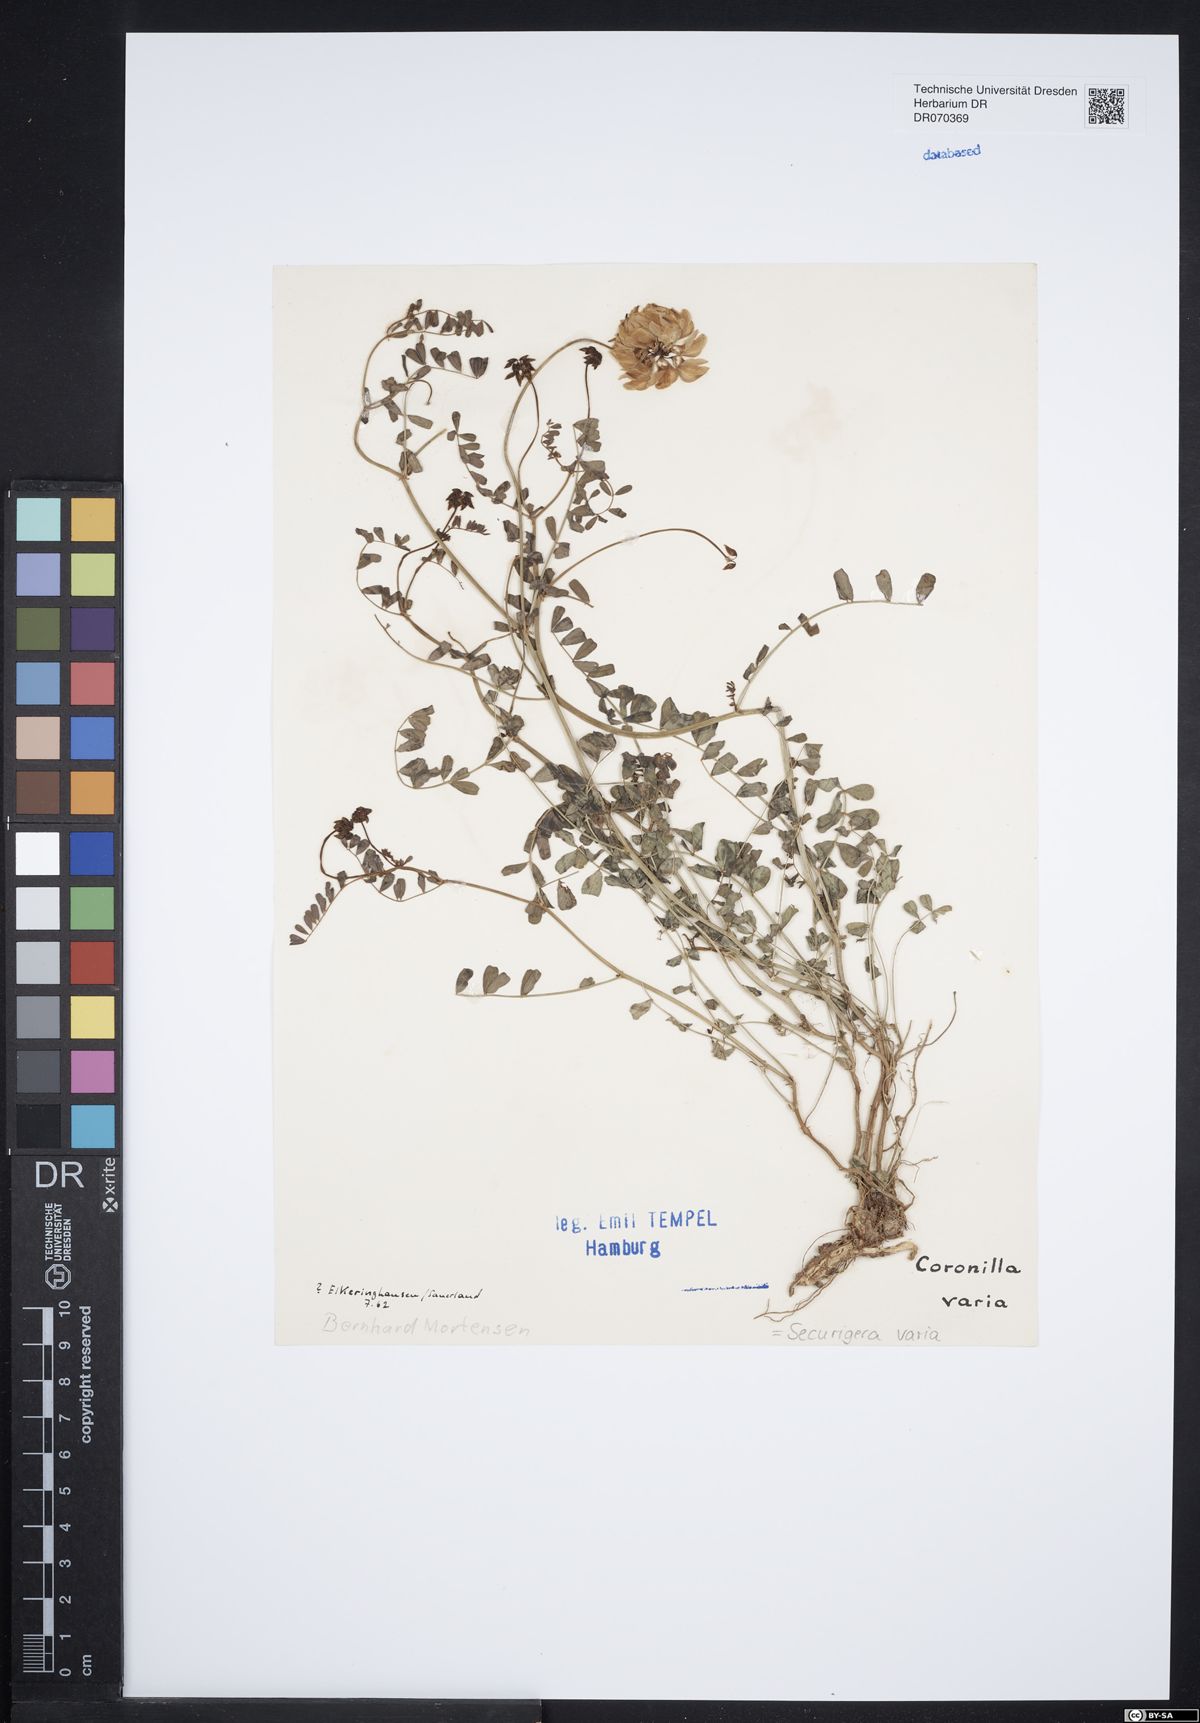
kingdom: Plantae
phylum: Tracheophyta
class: Magnoliopsida
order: Fabales
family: Fabaceae
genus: Coronilla
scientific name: Coronilla varia
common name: Crownvetch
